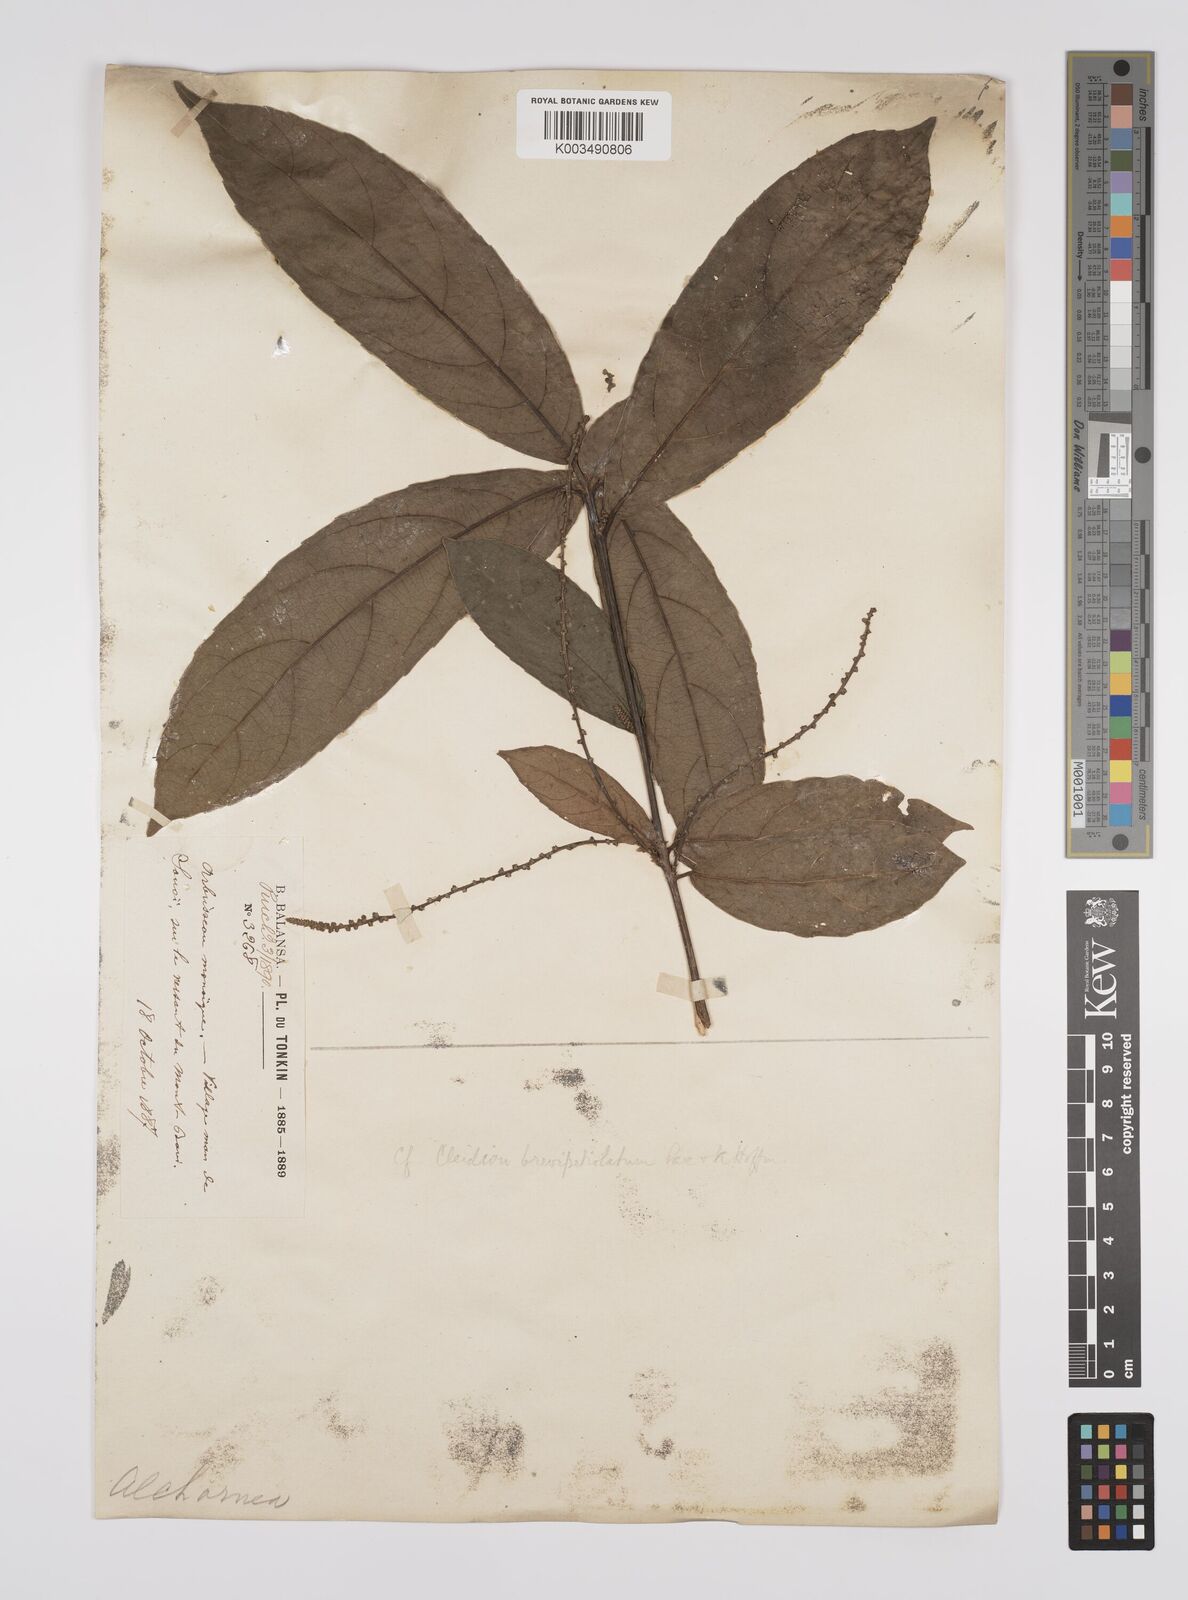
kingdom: Plantae
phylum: Tracheophyta
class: Magnoliopsida
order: Malpighiales
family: Euphorbiaceae
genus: Cleidion
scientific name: Cleidion brevipetiolatum
